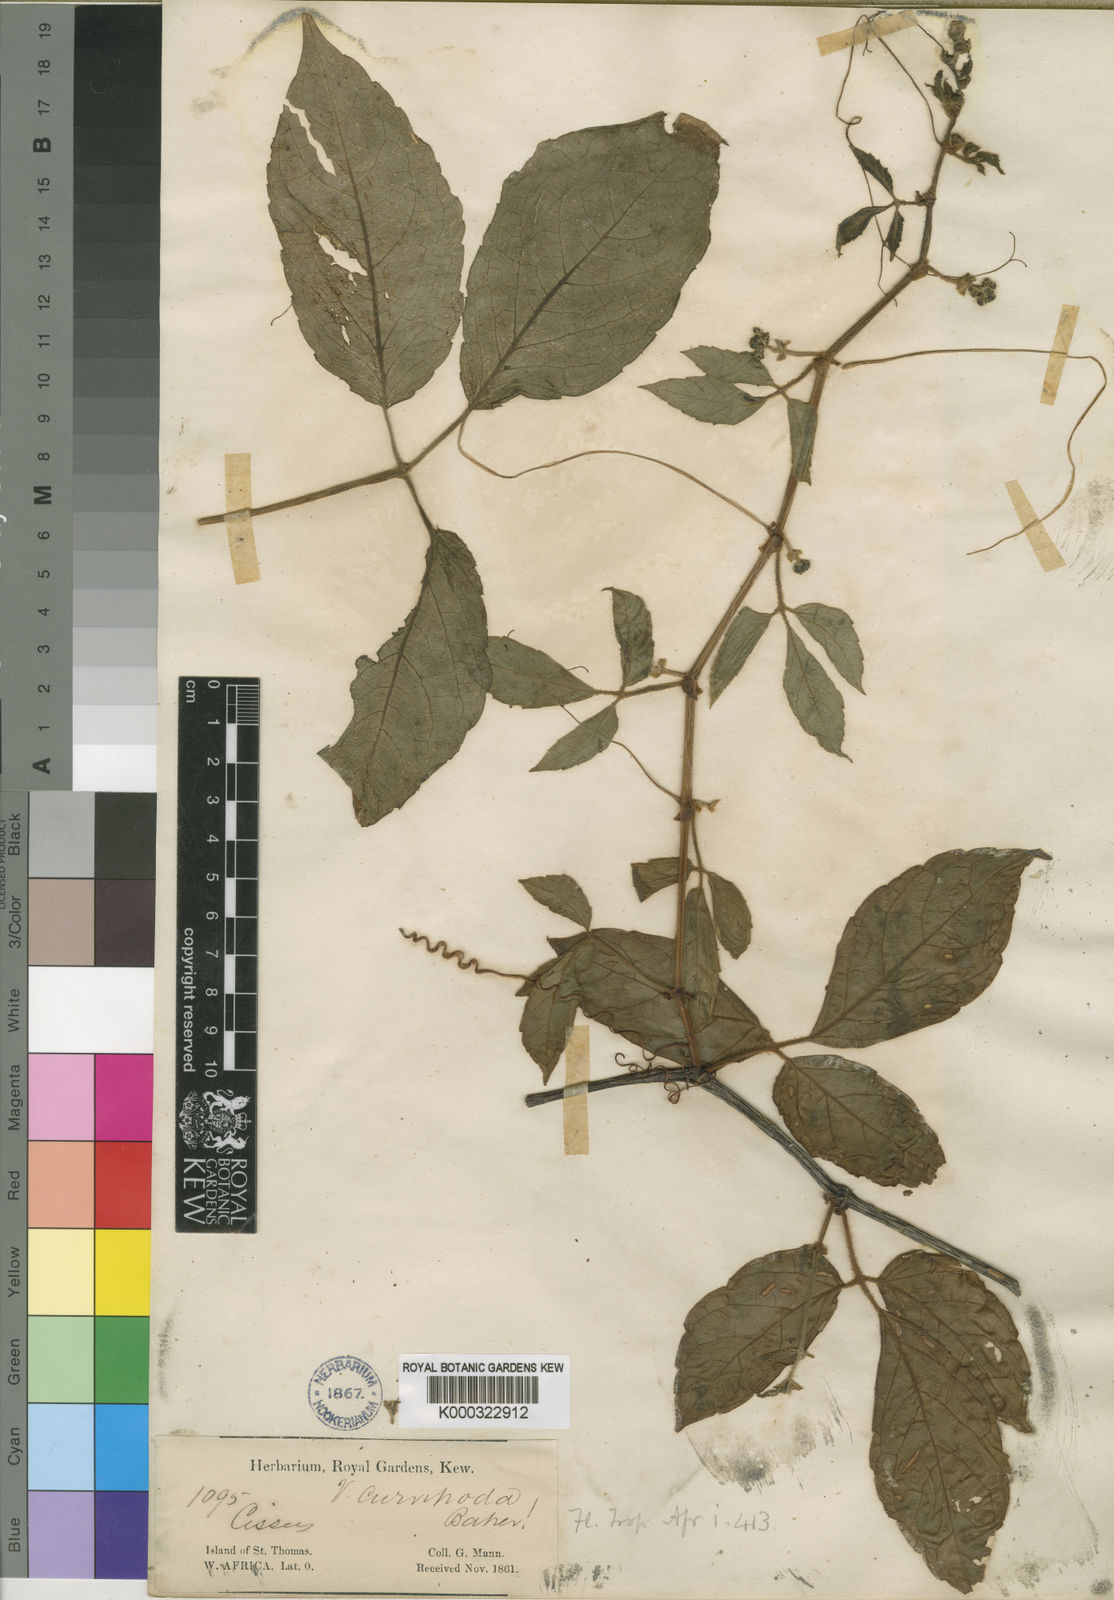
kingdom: Plantae
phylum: Tracheophyta
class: Magnoliopsida
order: Vitales
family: Vitaceae
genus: Cyphostemma
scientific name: Cyphostemma curvipodum
